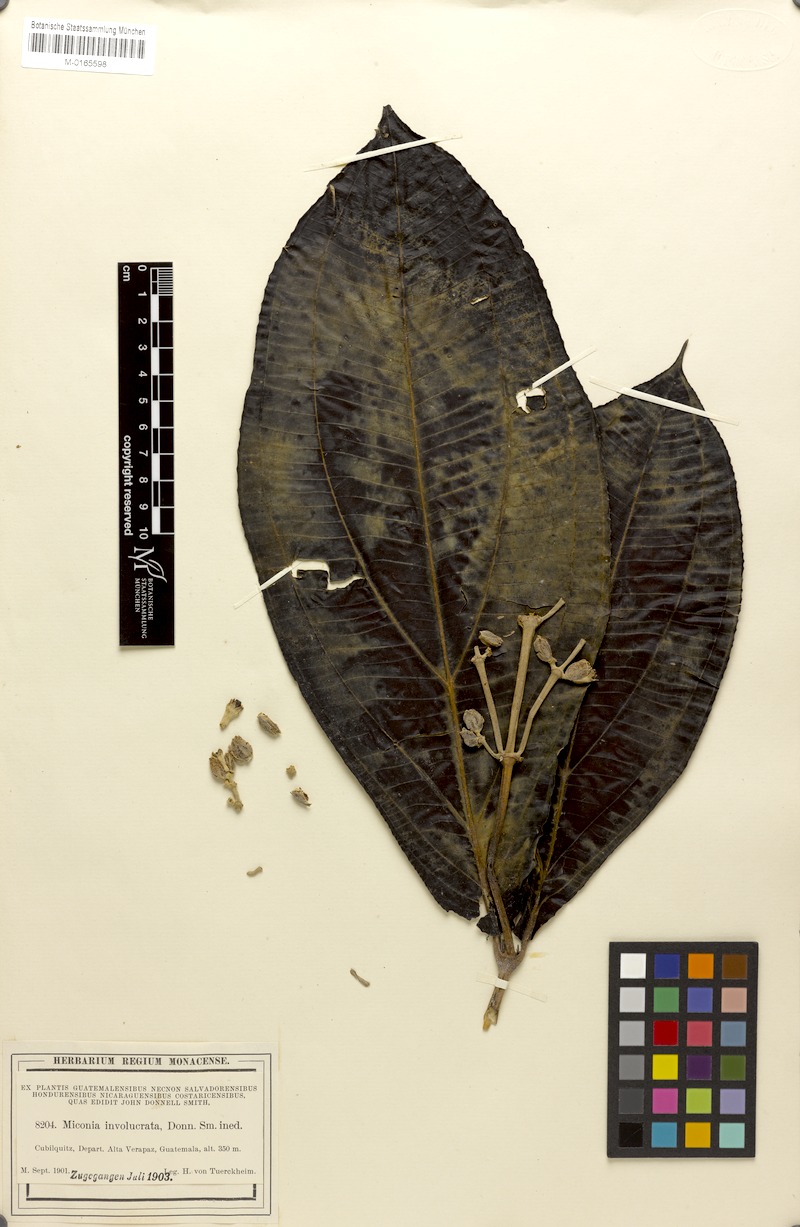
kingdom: Plantae
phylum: Tracheophyta
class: Magnoliopsida
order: Myrtales
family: Melastomataceae
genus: Miconia
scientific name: Miconia ampla
